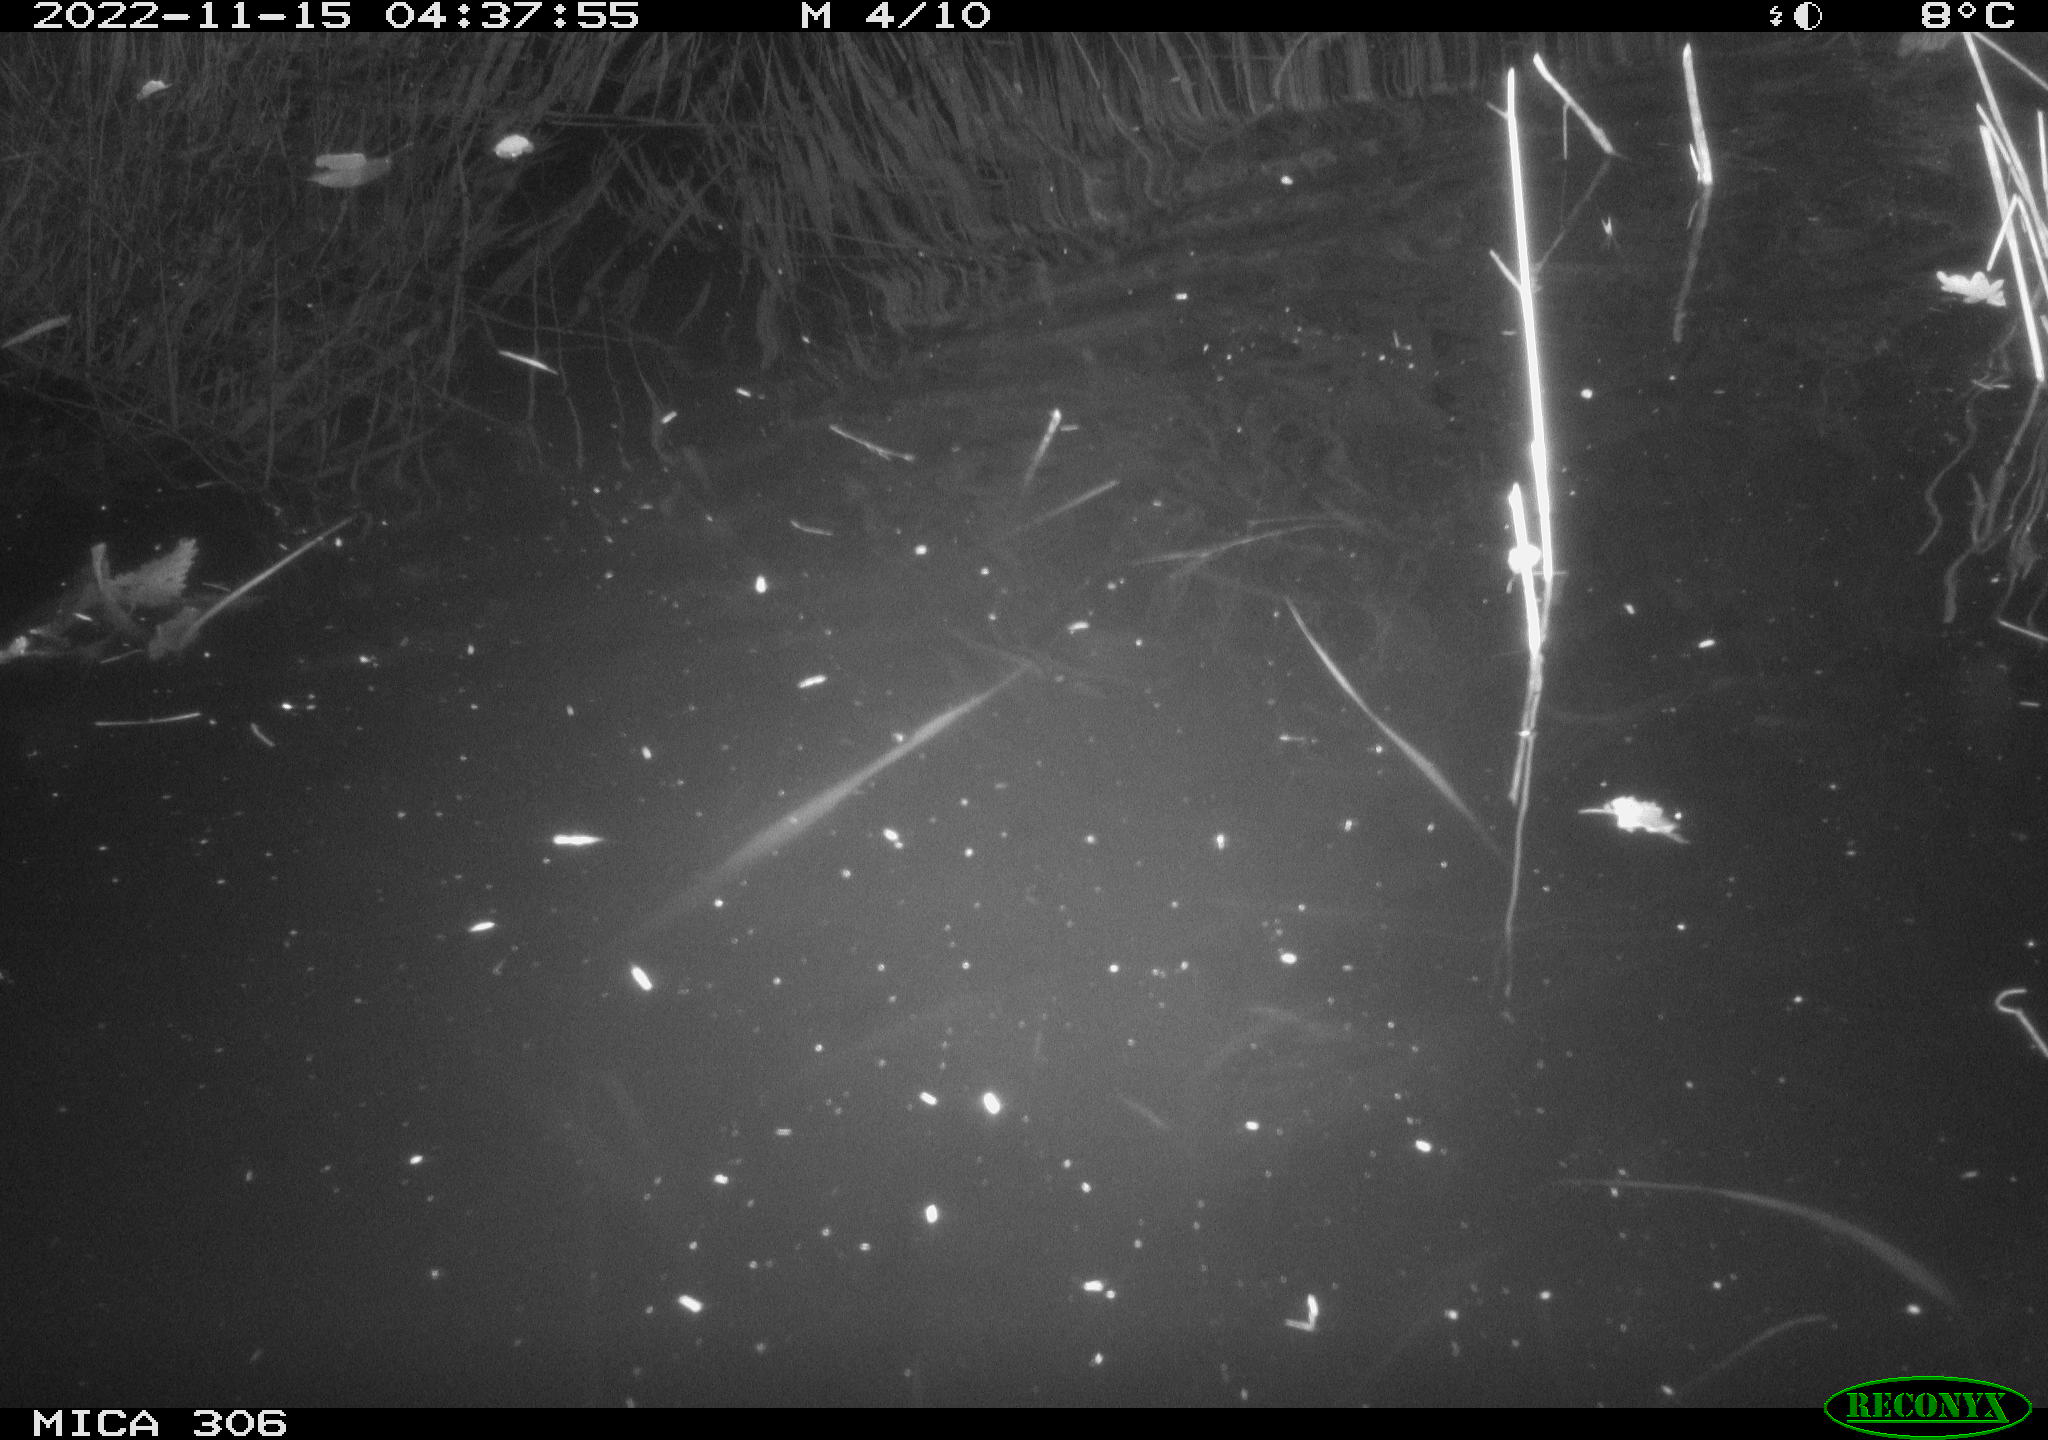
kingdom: Animalia
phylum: Chordata
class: Mammalia
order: Rodentia
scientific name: Rodentia
